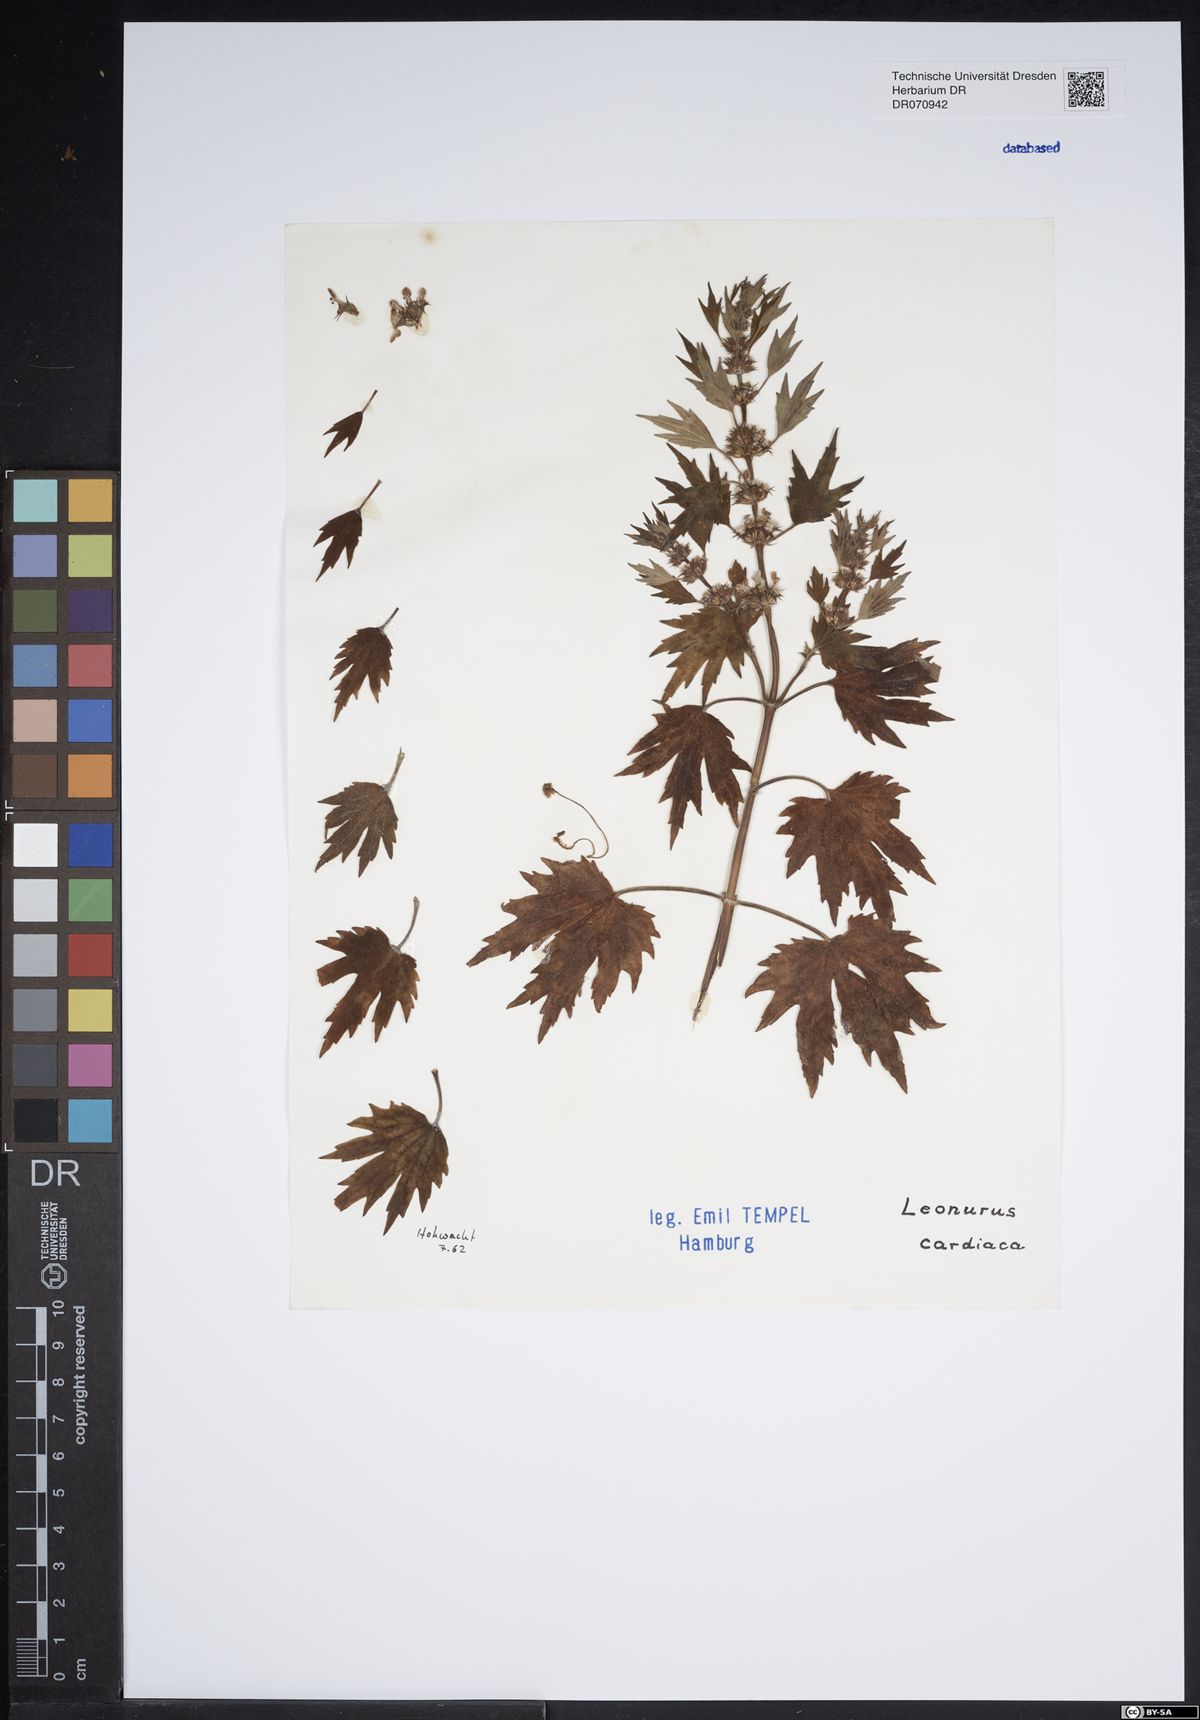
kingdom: Plantae
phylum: Tracheophyta
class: Magnoliopsida
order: Lamiales
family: Lamiaceae
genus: Leonurus
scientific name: Leonurus cardiaca
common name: Motherwort
